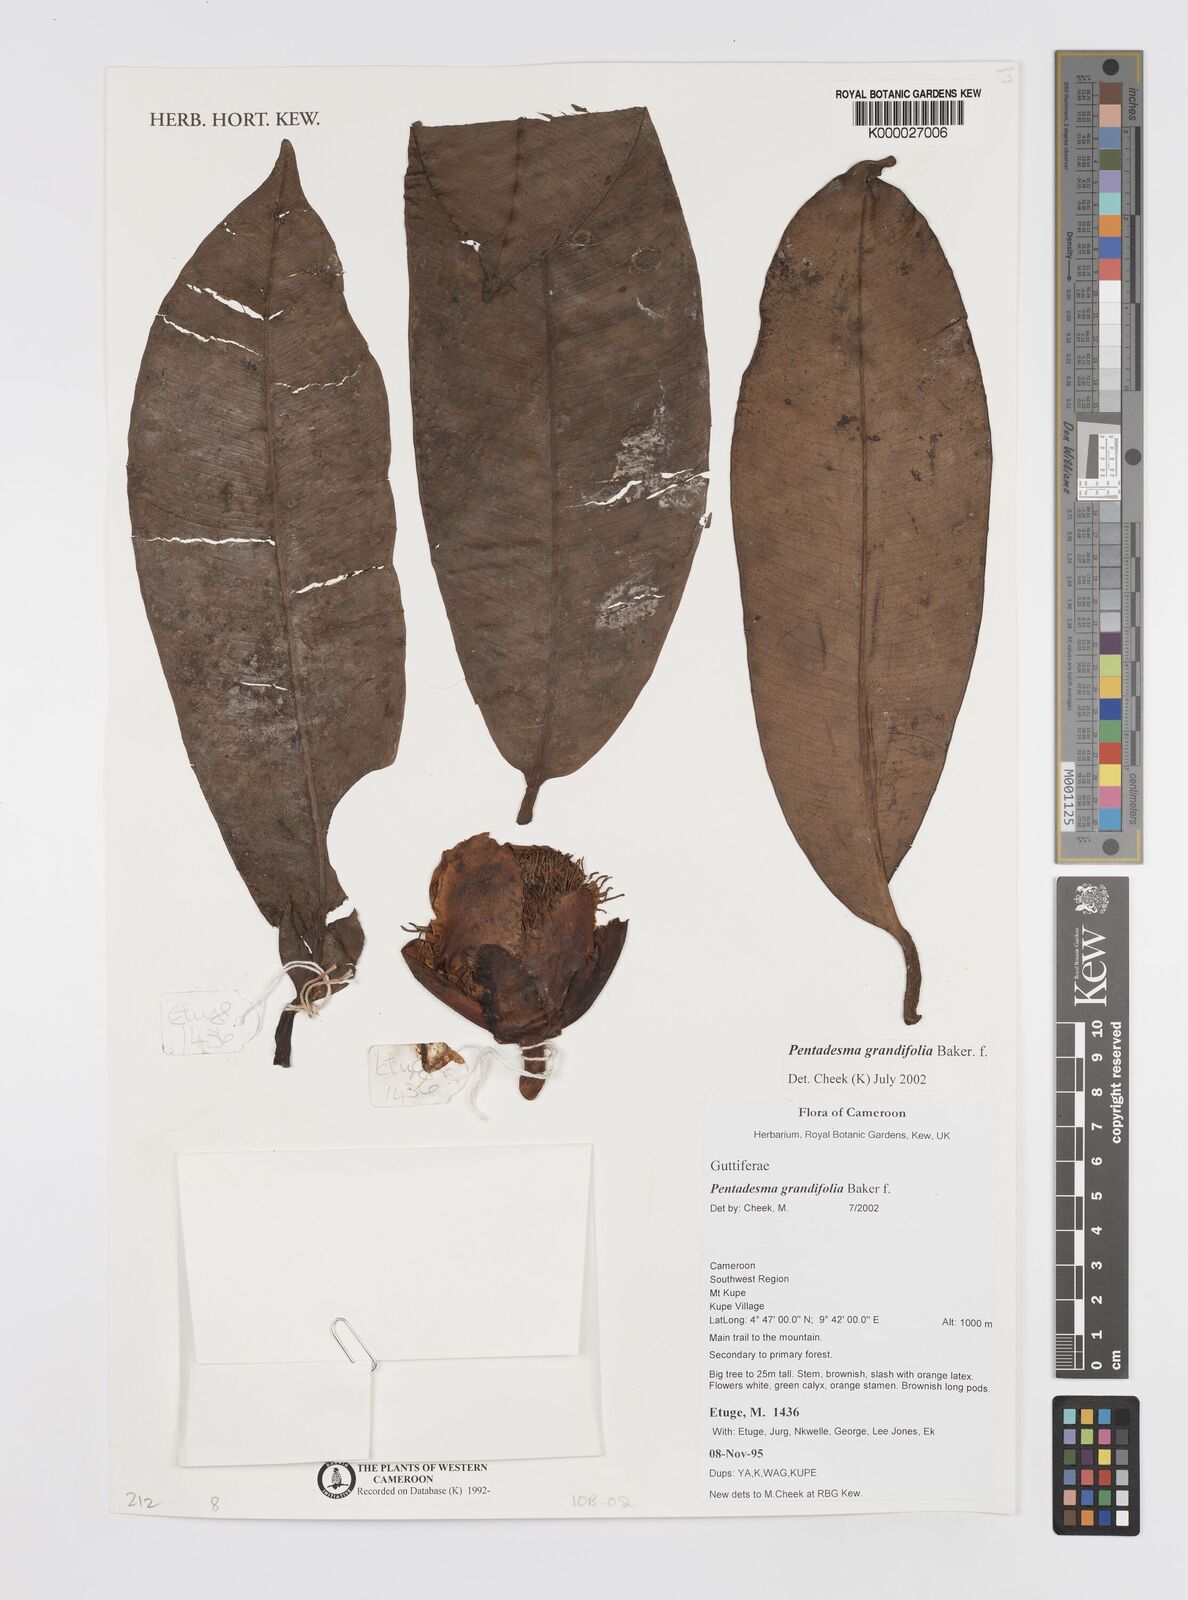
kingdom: Plantae
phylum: Tracheophyta
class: Magnoliopsida
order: Malpighiales
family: Clusiaceae
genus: Pentadesma
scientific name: Pentadesma grandifolia
